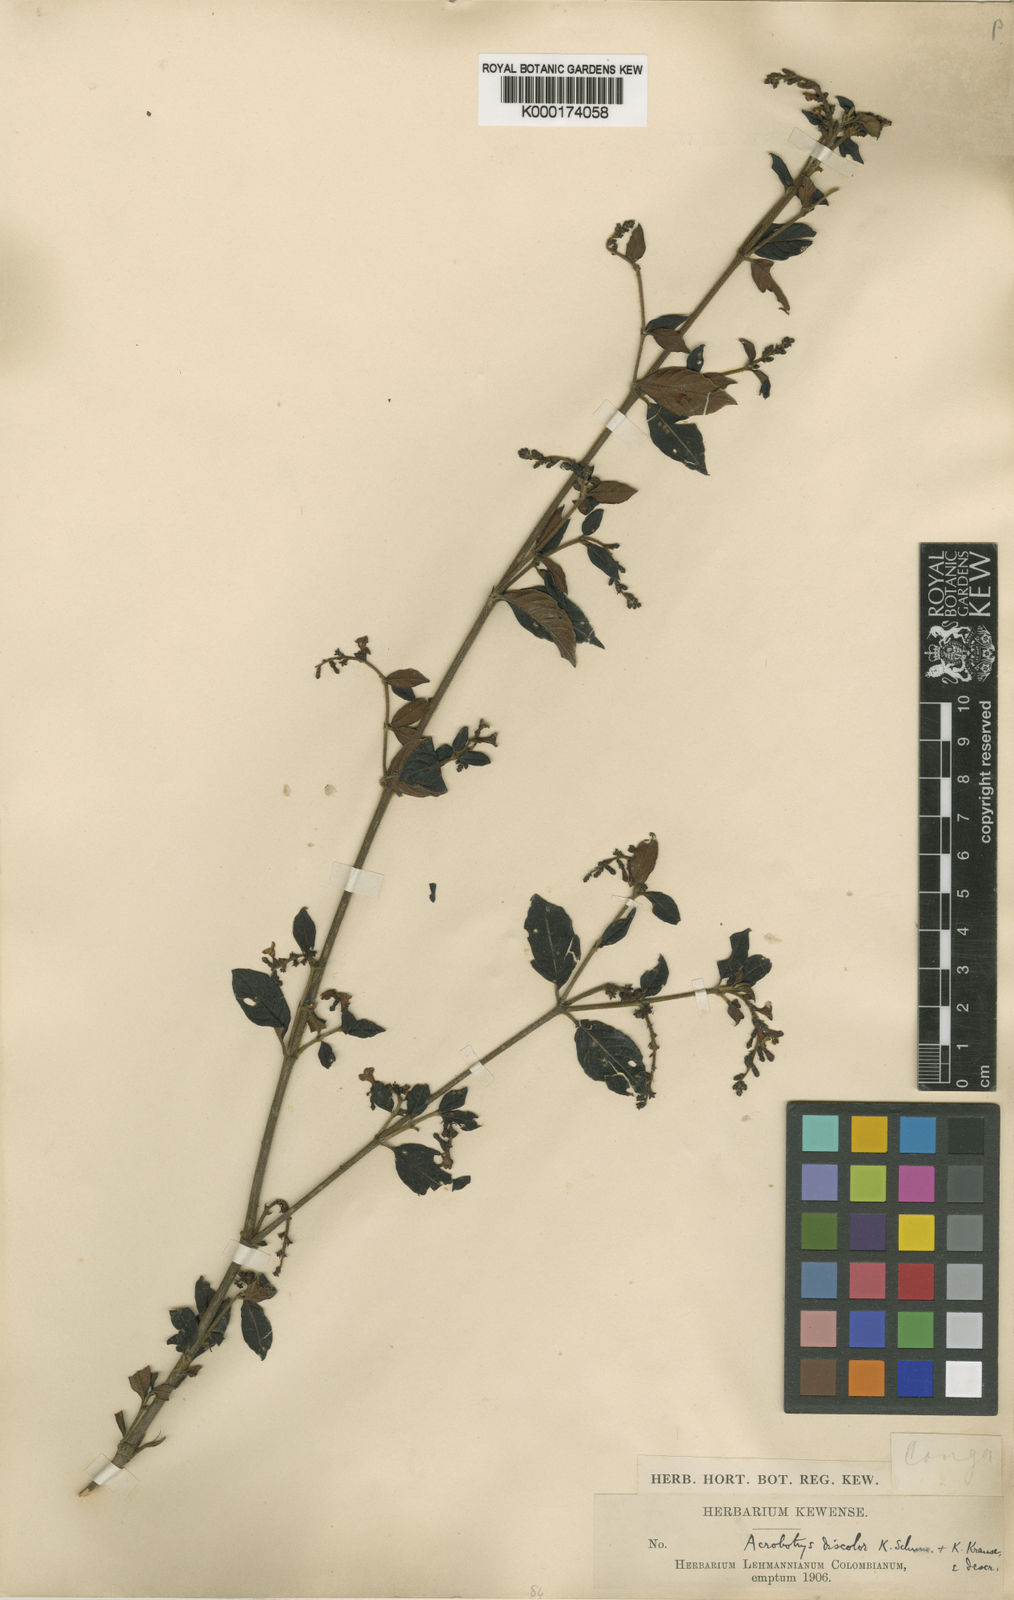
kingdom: Plantae
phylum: Tracheophyta
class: Magnoliopsida
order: Gentianales
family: Rubiaceae
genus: Acrobotrys
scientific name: Acrobotrys discolor
